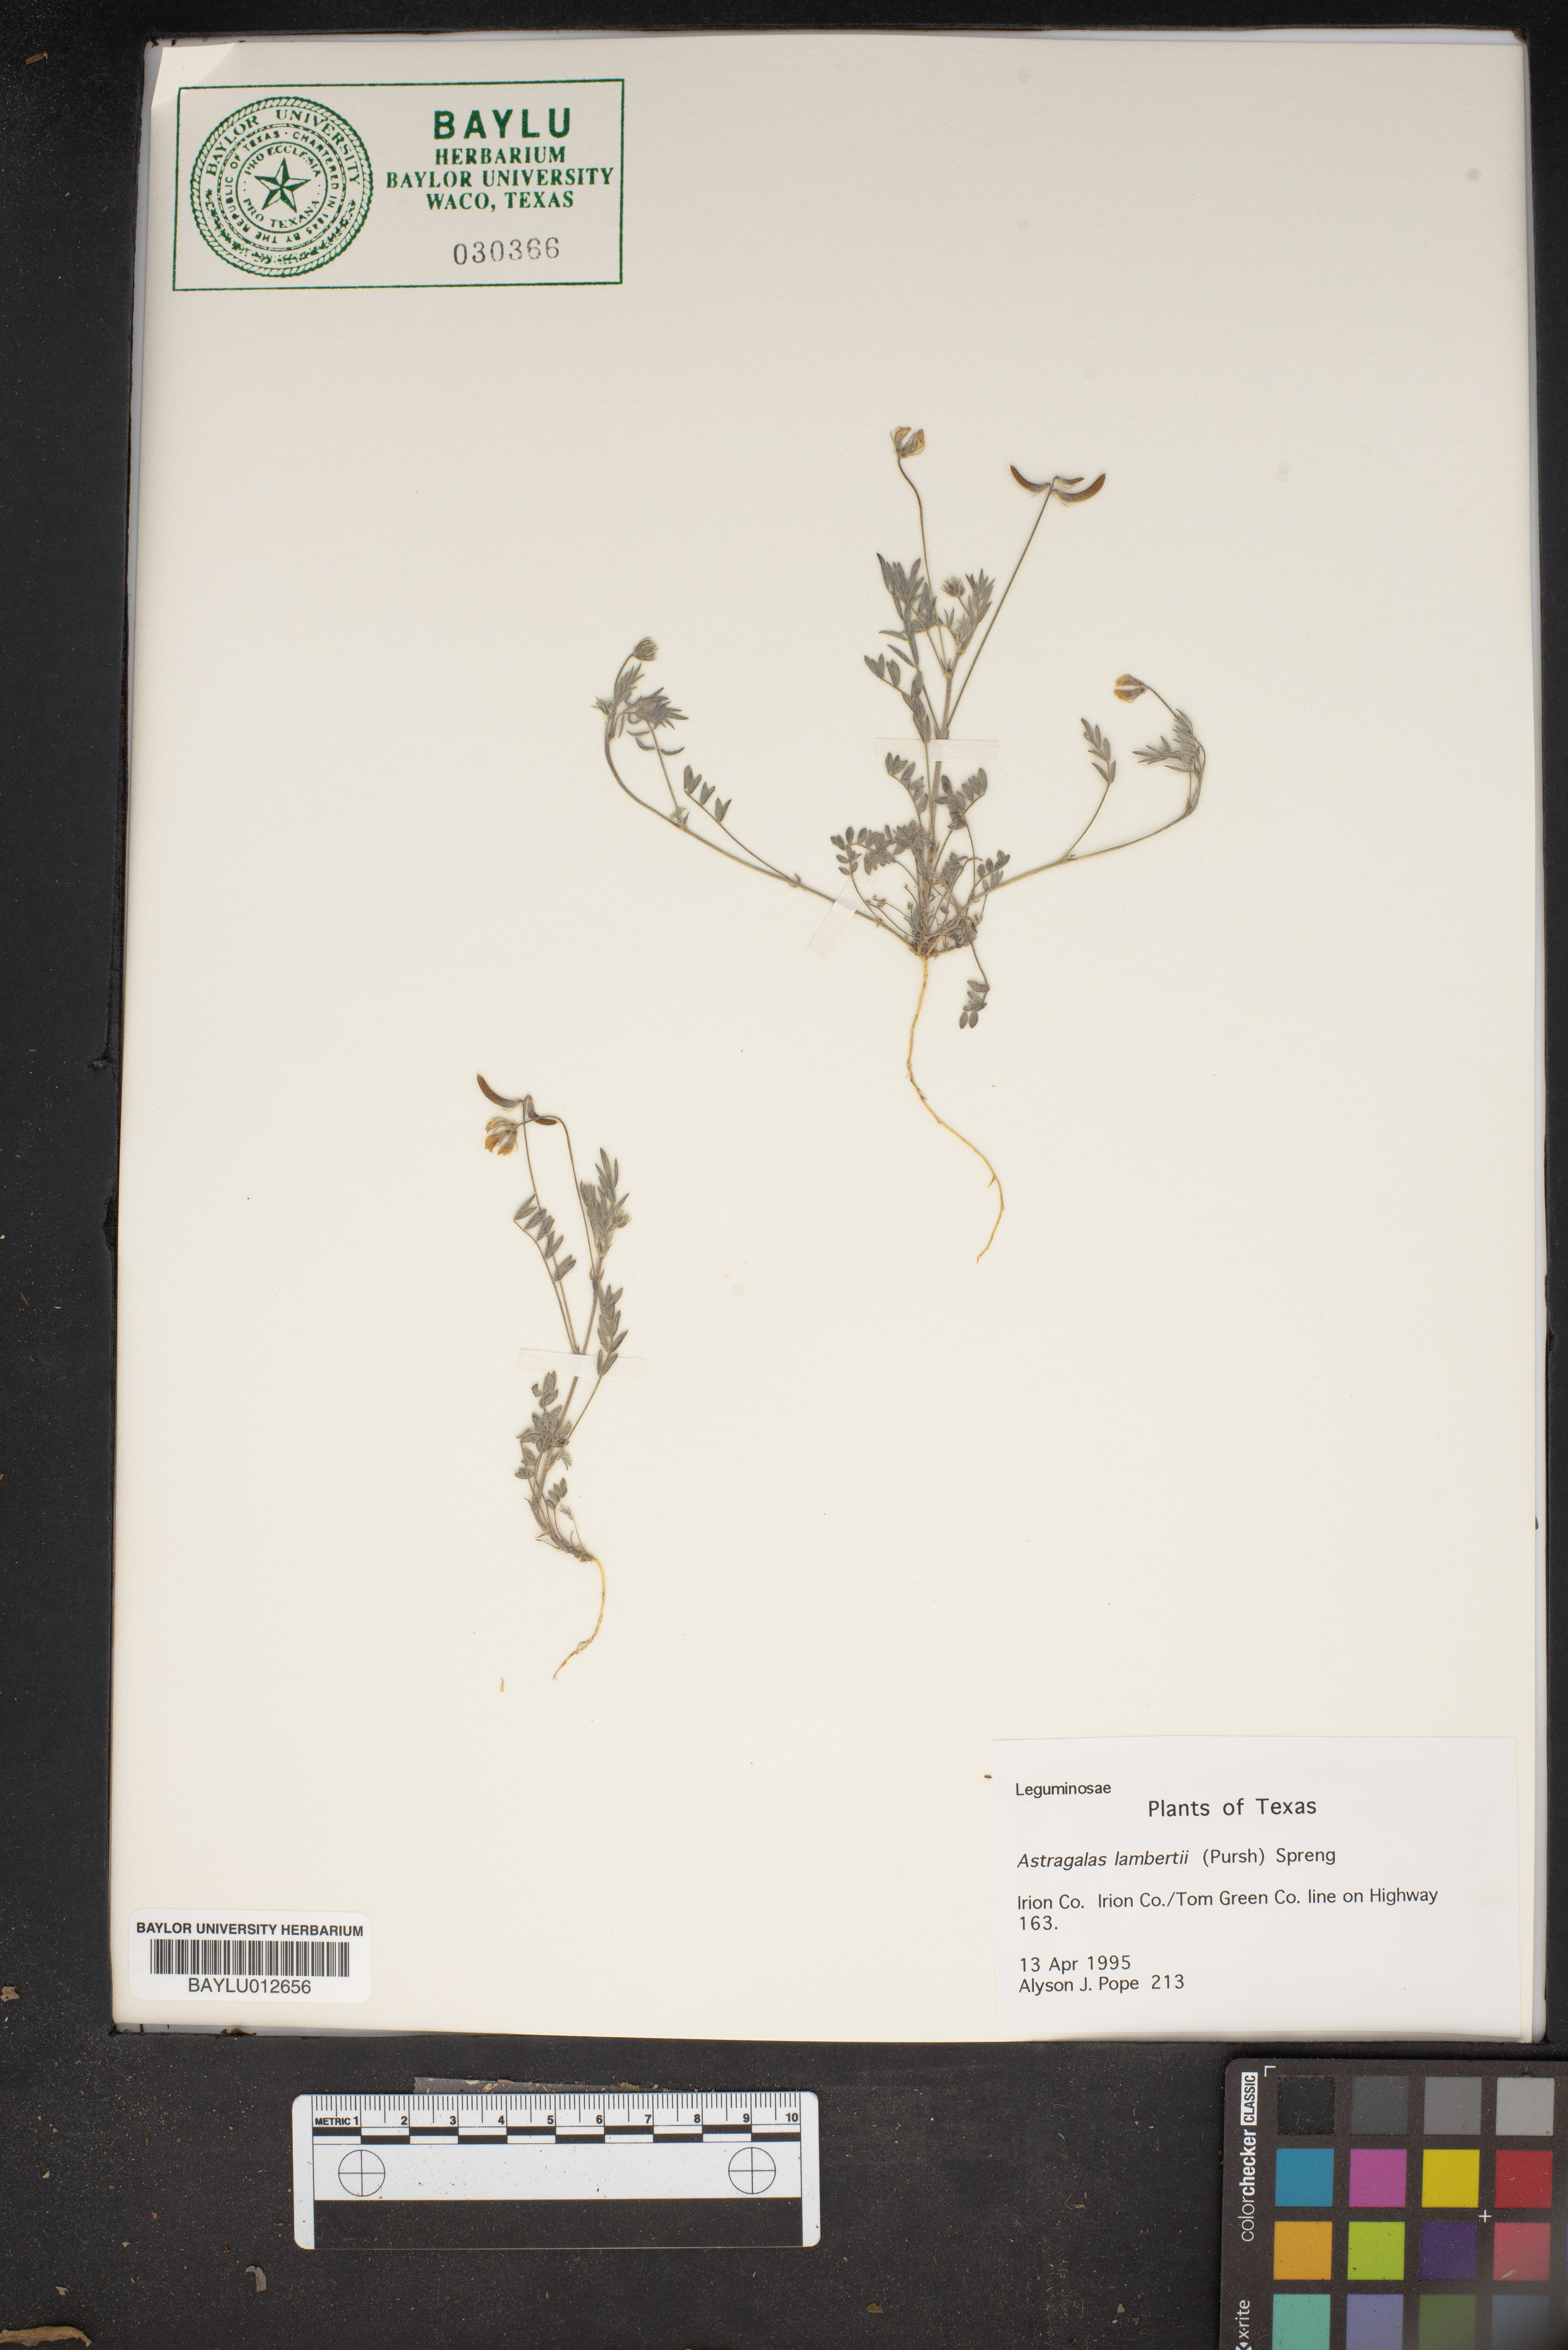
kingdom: Plantae
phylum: Tracheophyta
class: Magnoliopsida
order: Fabales
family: Fabaceae
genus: Oxytropis
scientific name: Oxytropis lambertii
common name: Purple locoweed
